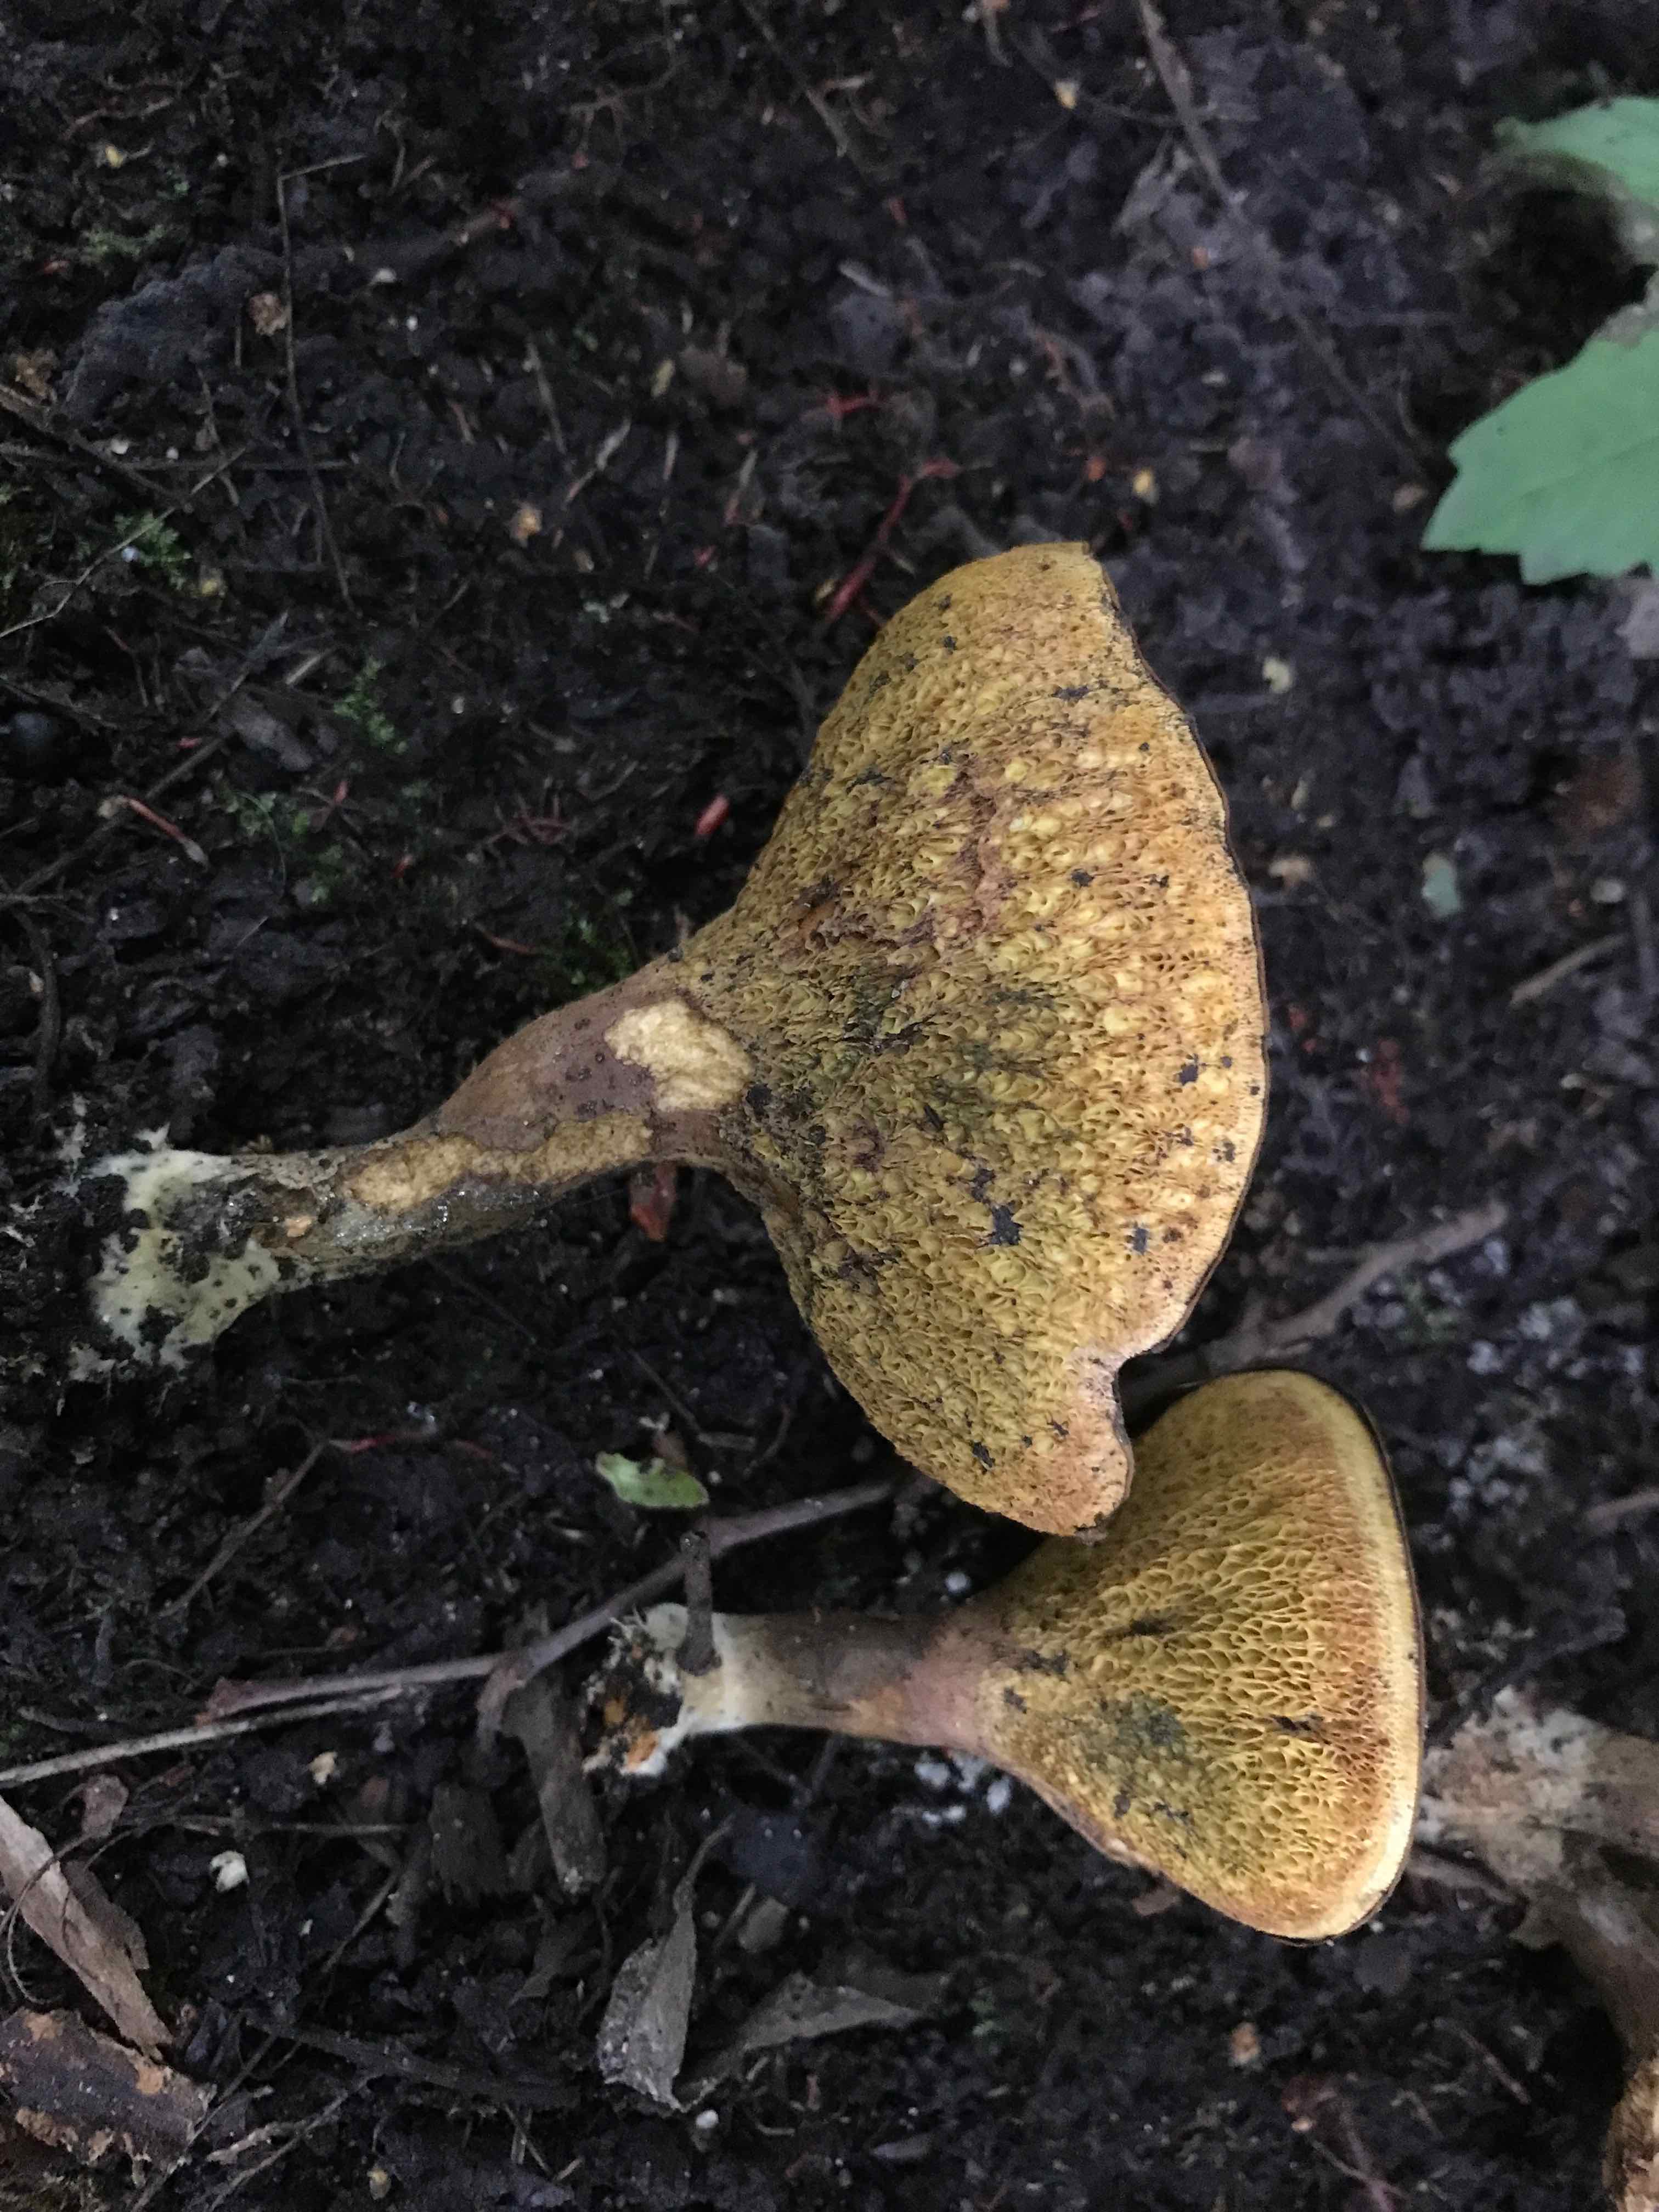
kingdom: Fungi
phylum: Basidiomycota
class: Agaricomycetes
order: Boletales
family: Paxillaceae
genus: Gyrodon
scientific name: Gyrodon lividus
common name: ellerørhat
